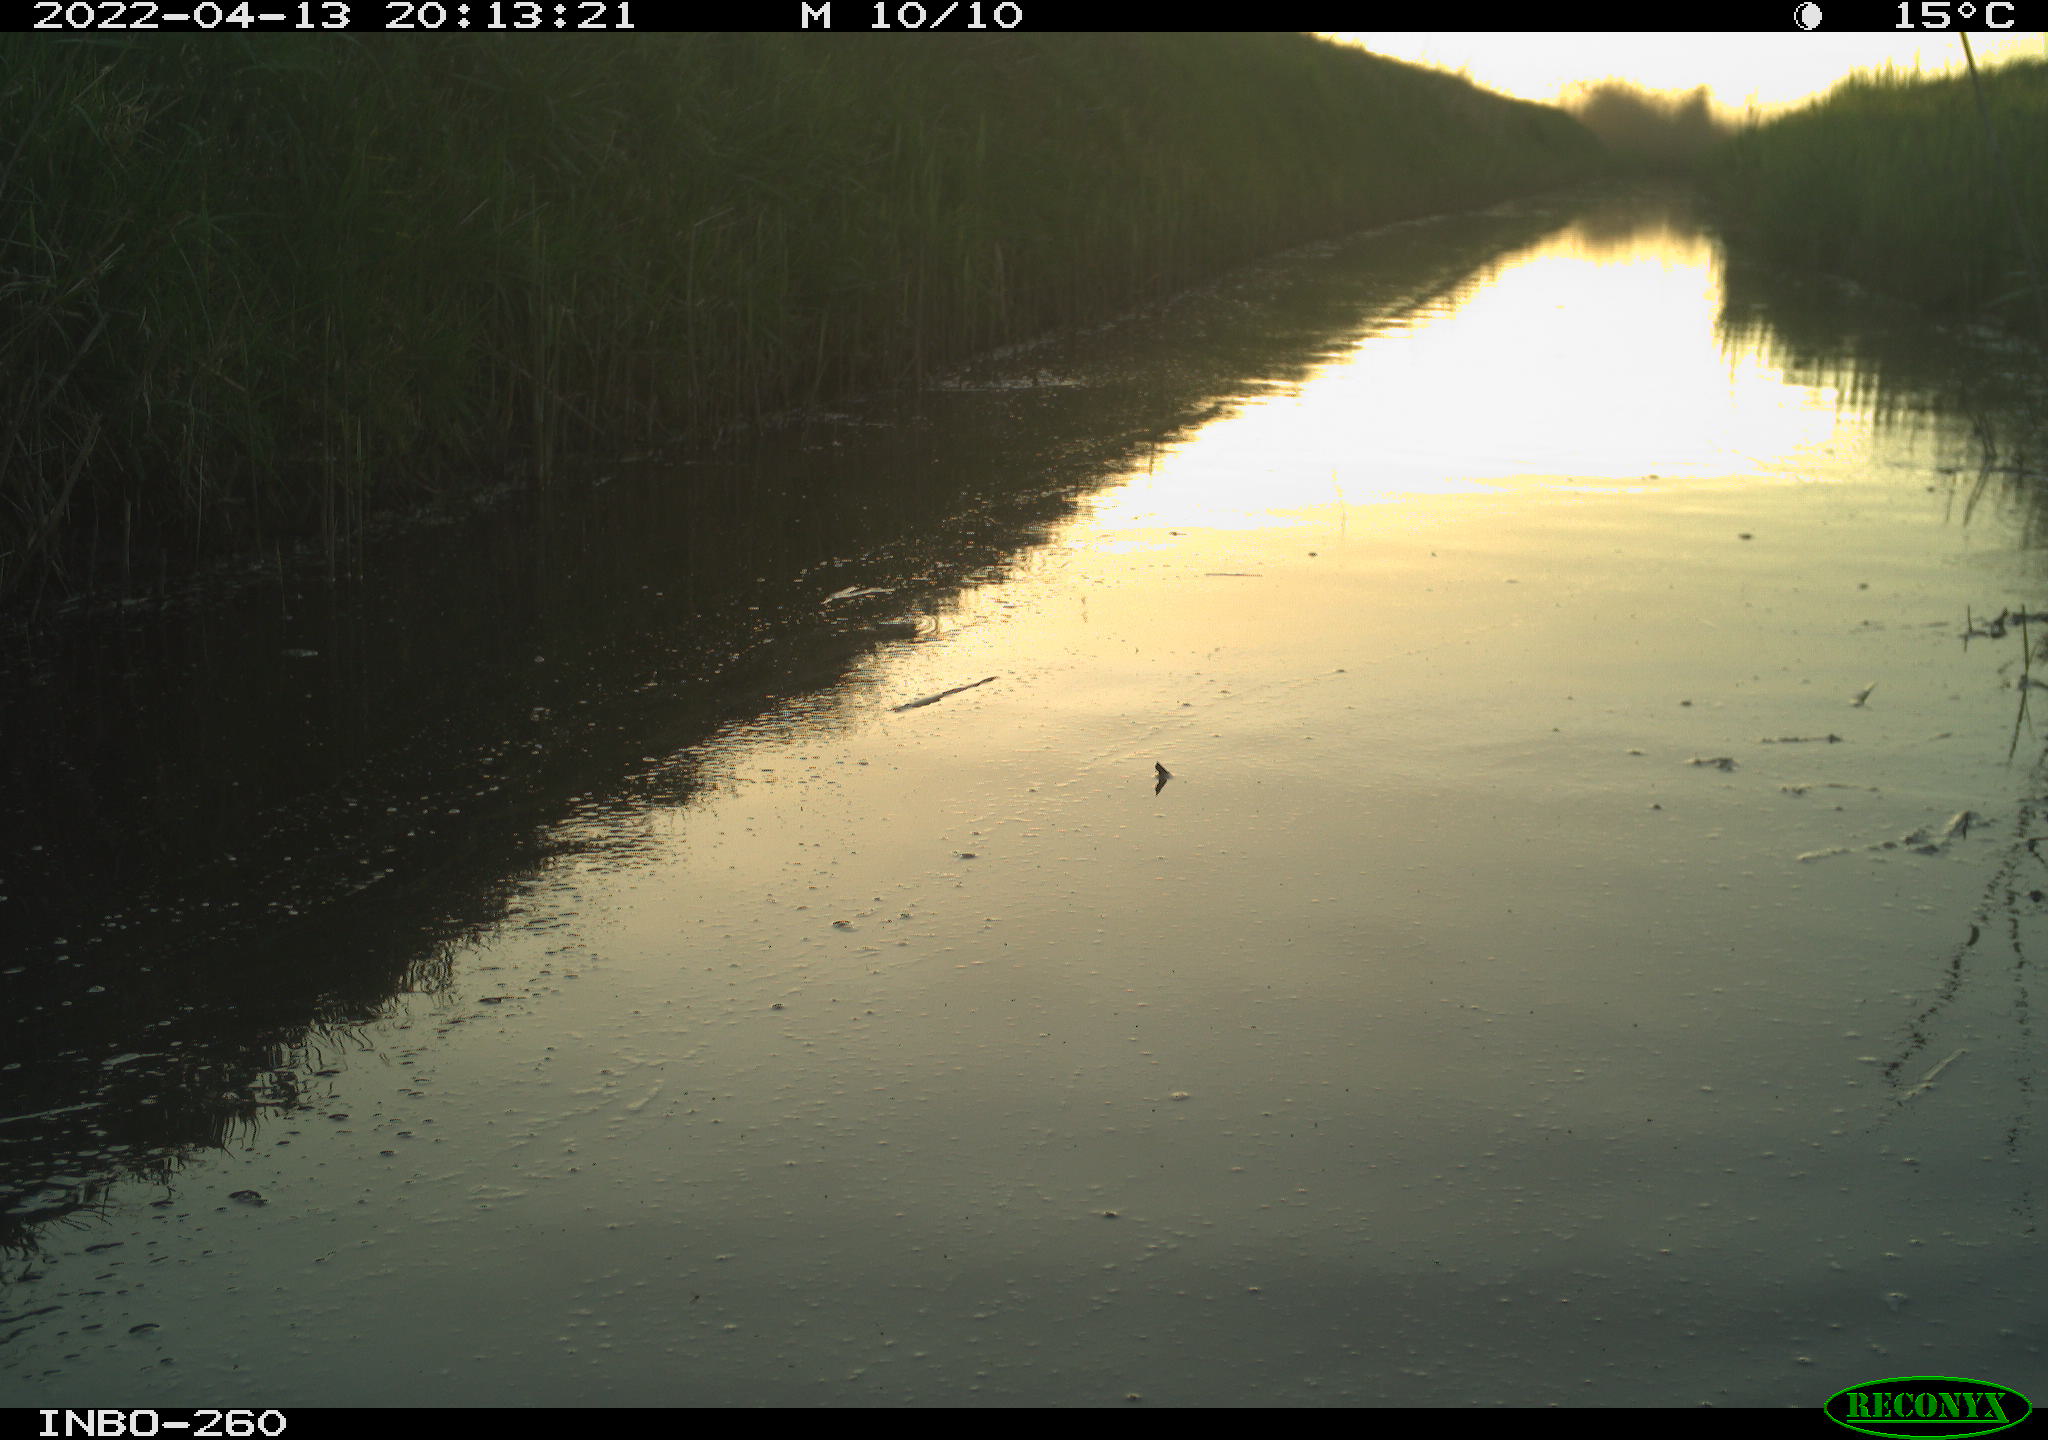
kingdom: Animalia
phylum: Chordata
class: Aves
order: Gruiformes
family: Rallidae
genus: Fulica
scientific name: Fulica atra
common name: Eurasian coot
